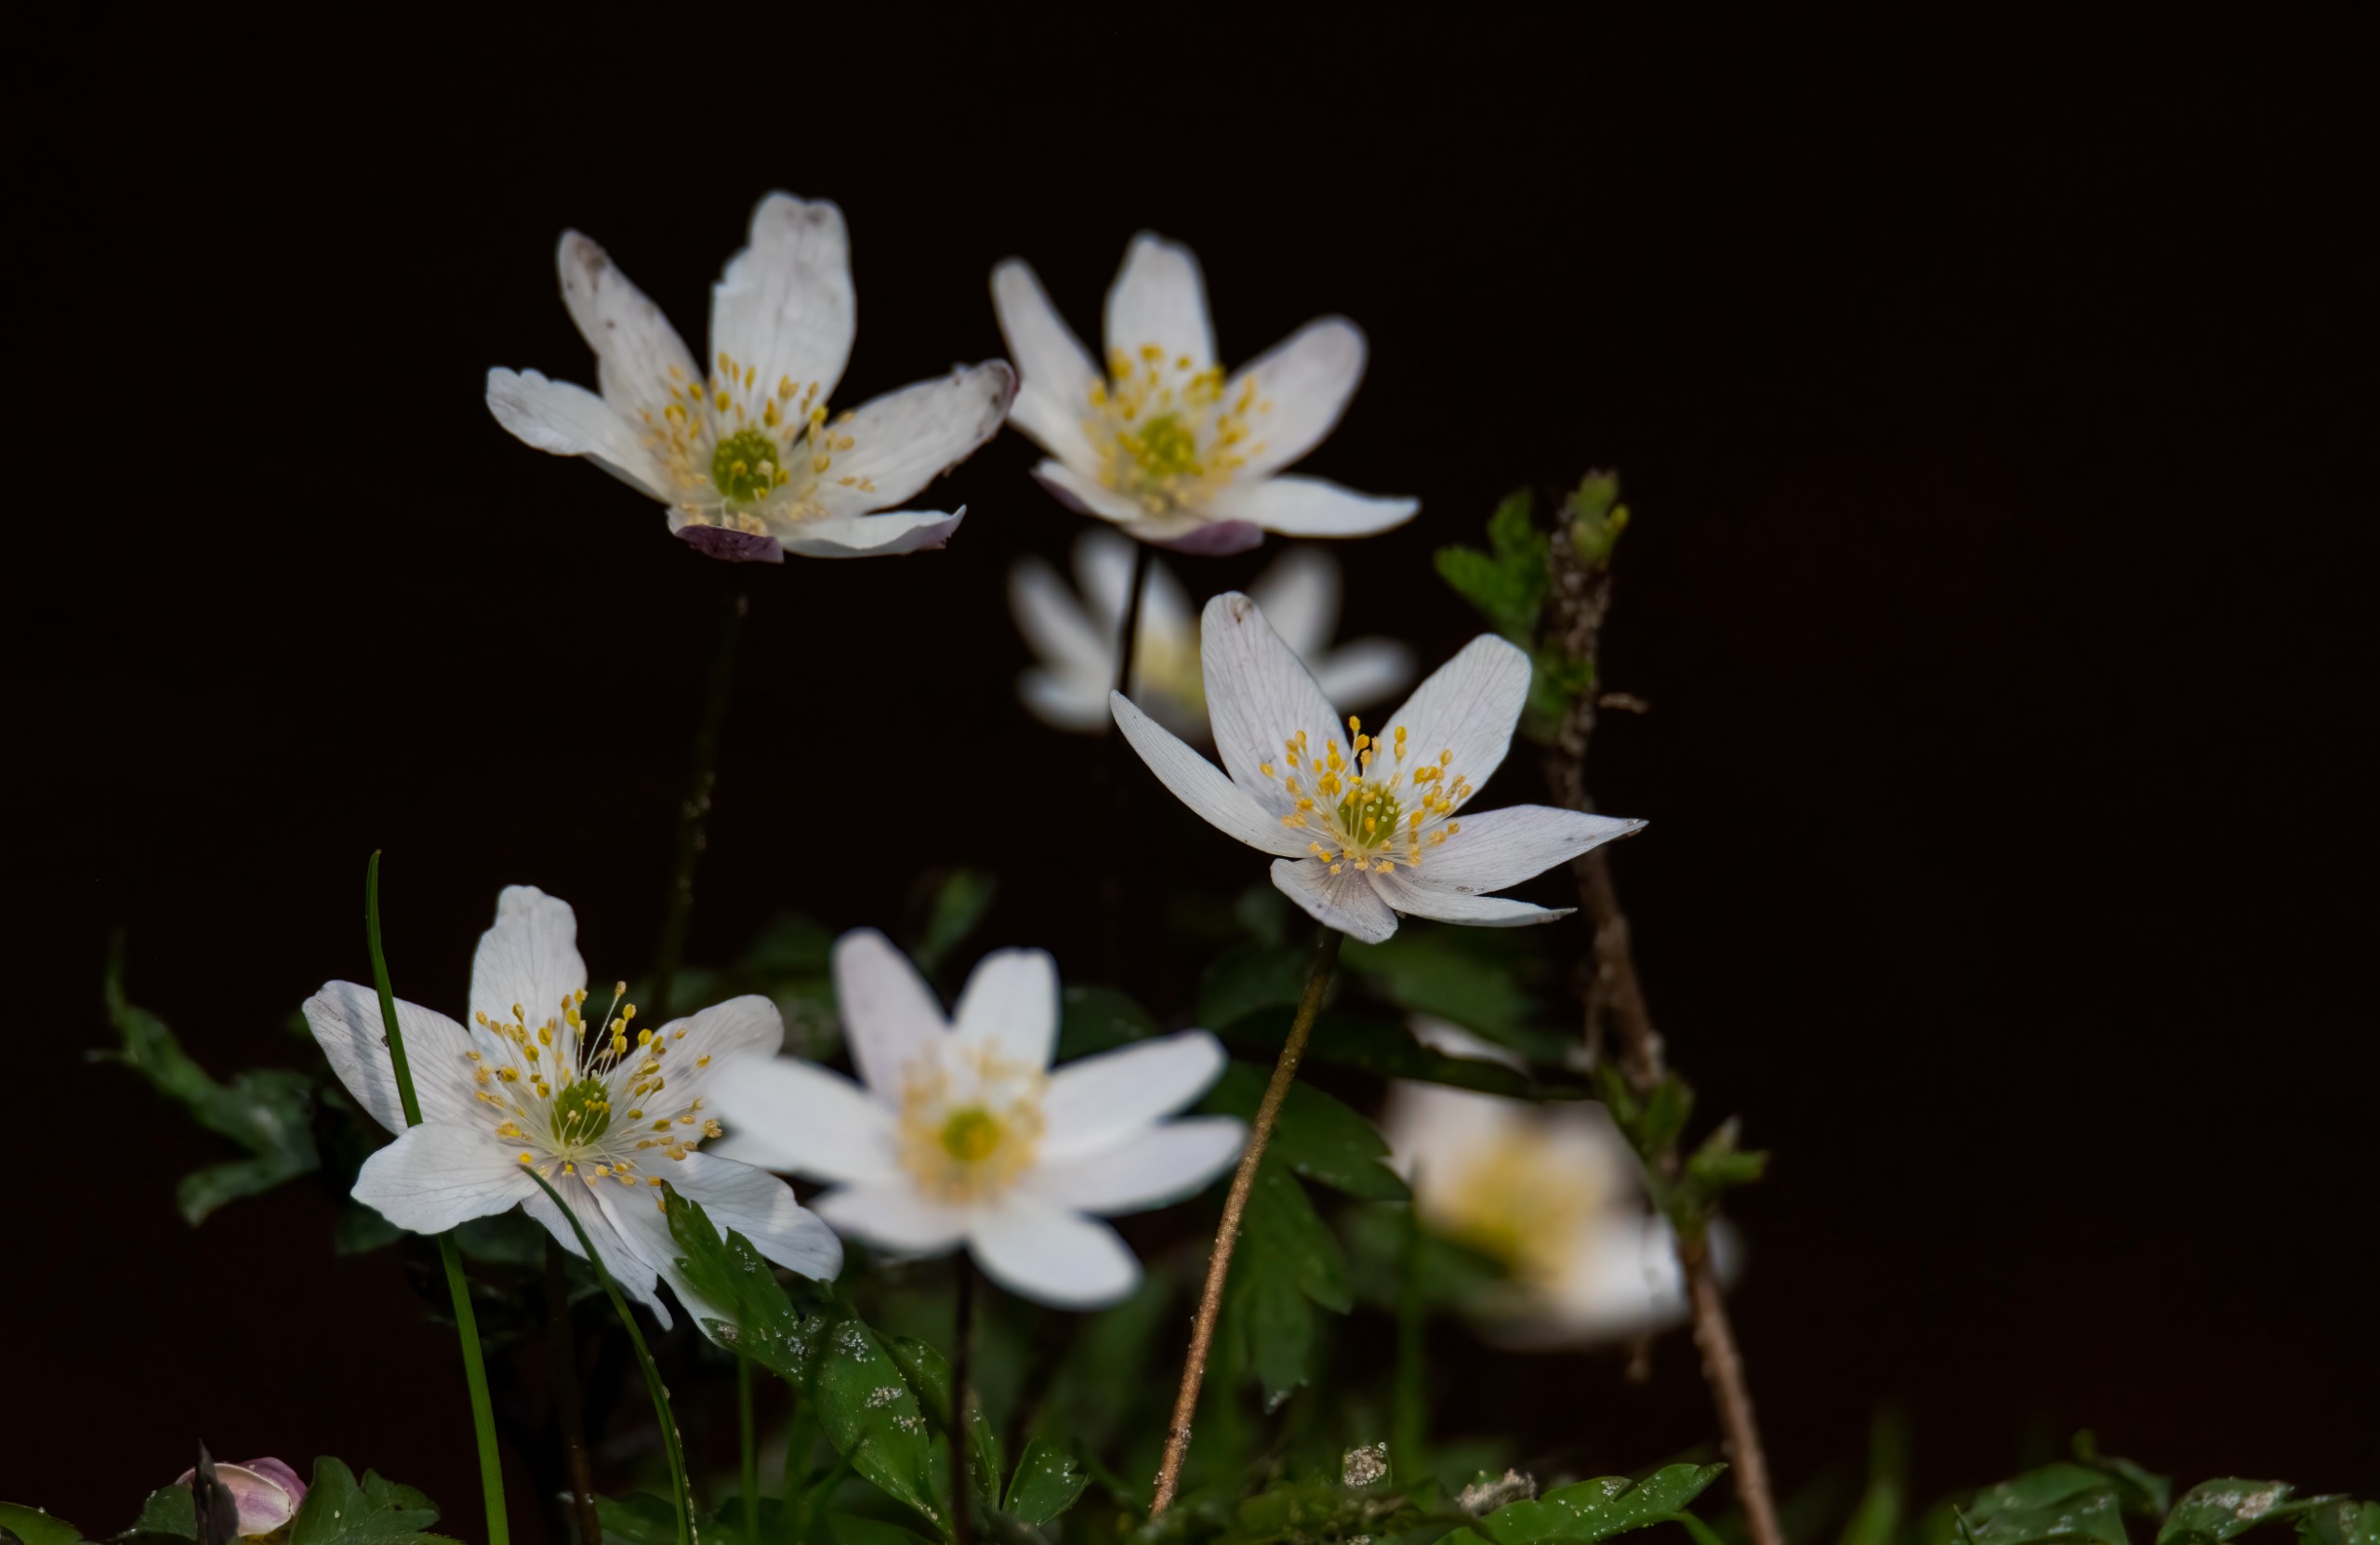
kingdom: Plantae
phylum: Tracheophyta
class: Magnoliopsida
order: Ranunculales
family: Ranunculaceae
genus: Anemone
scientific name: Anemone nemorosa
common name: Hvid anemone
